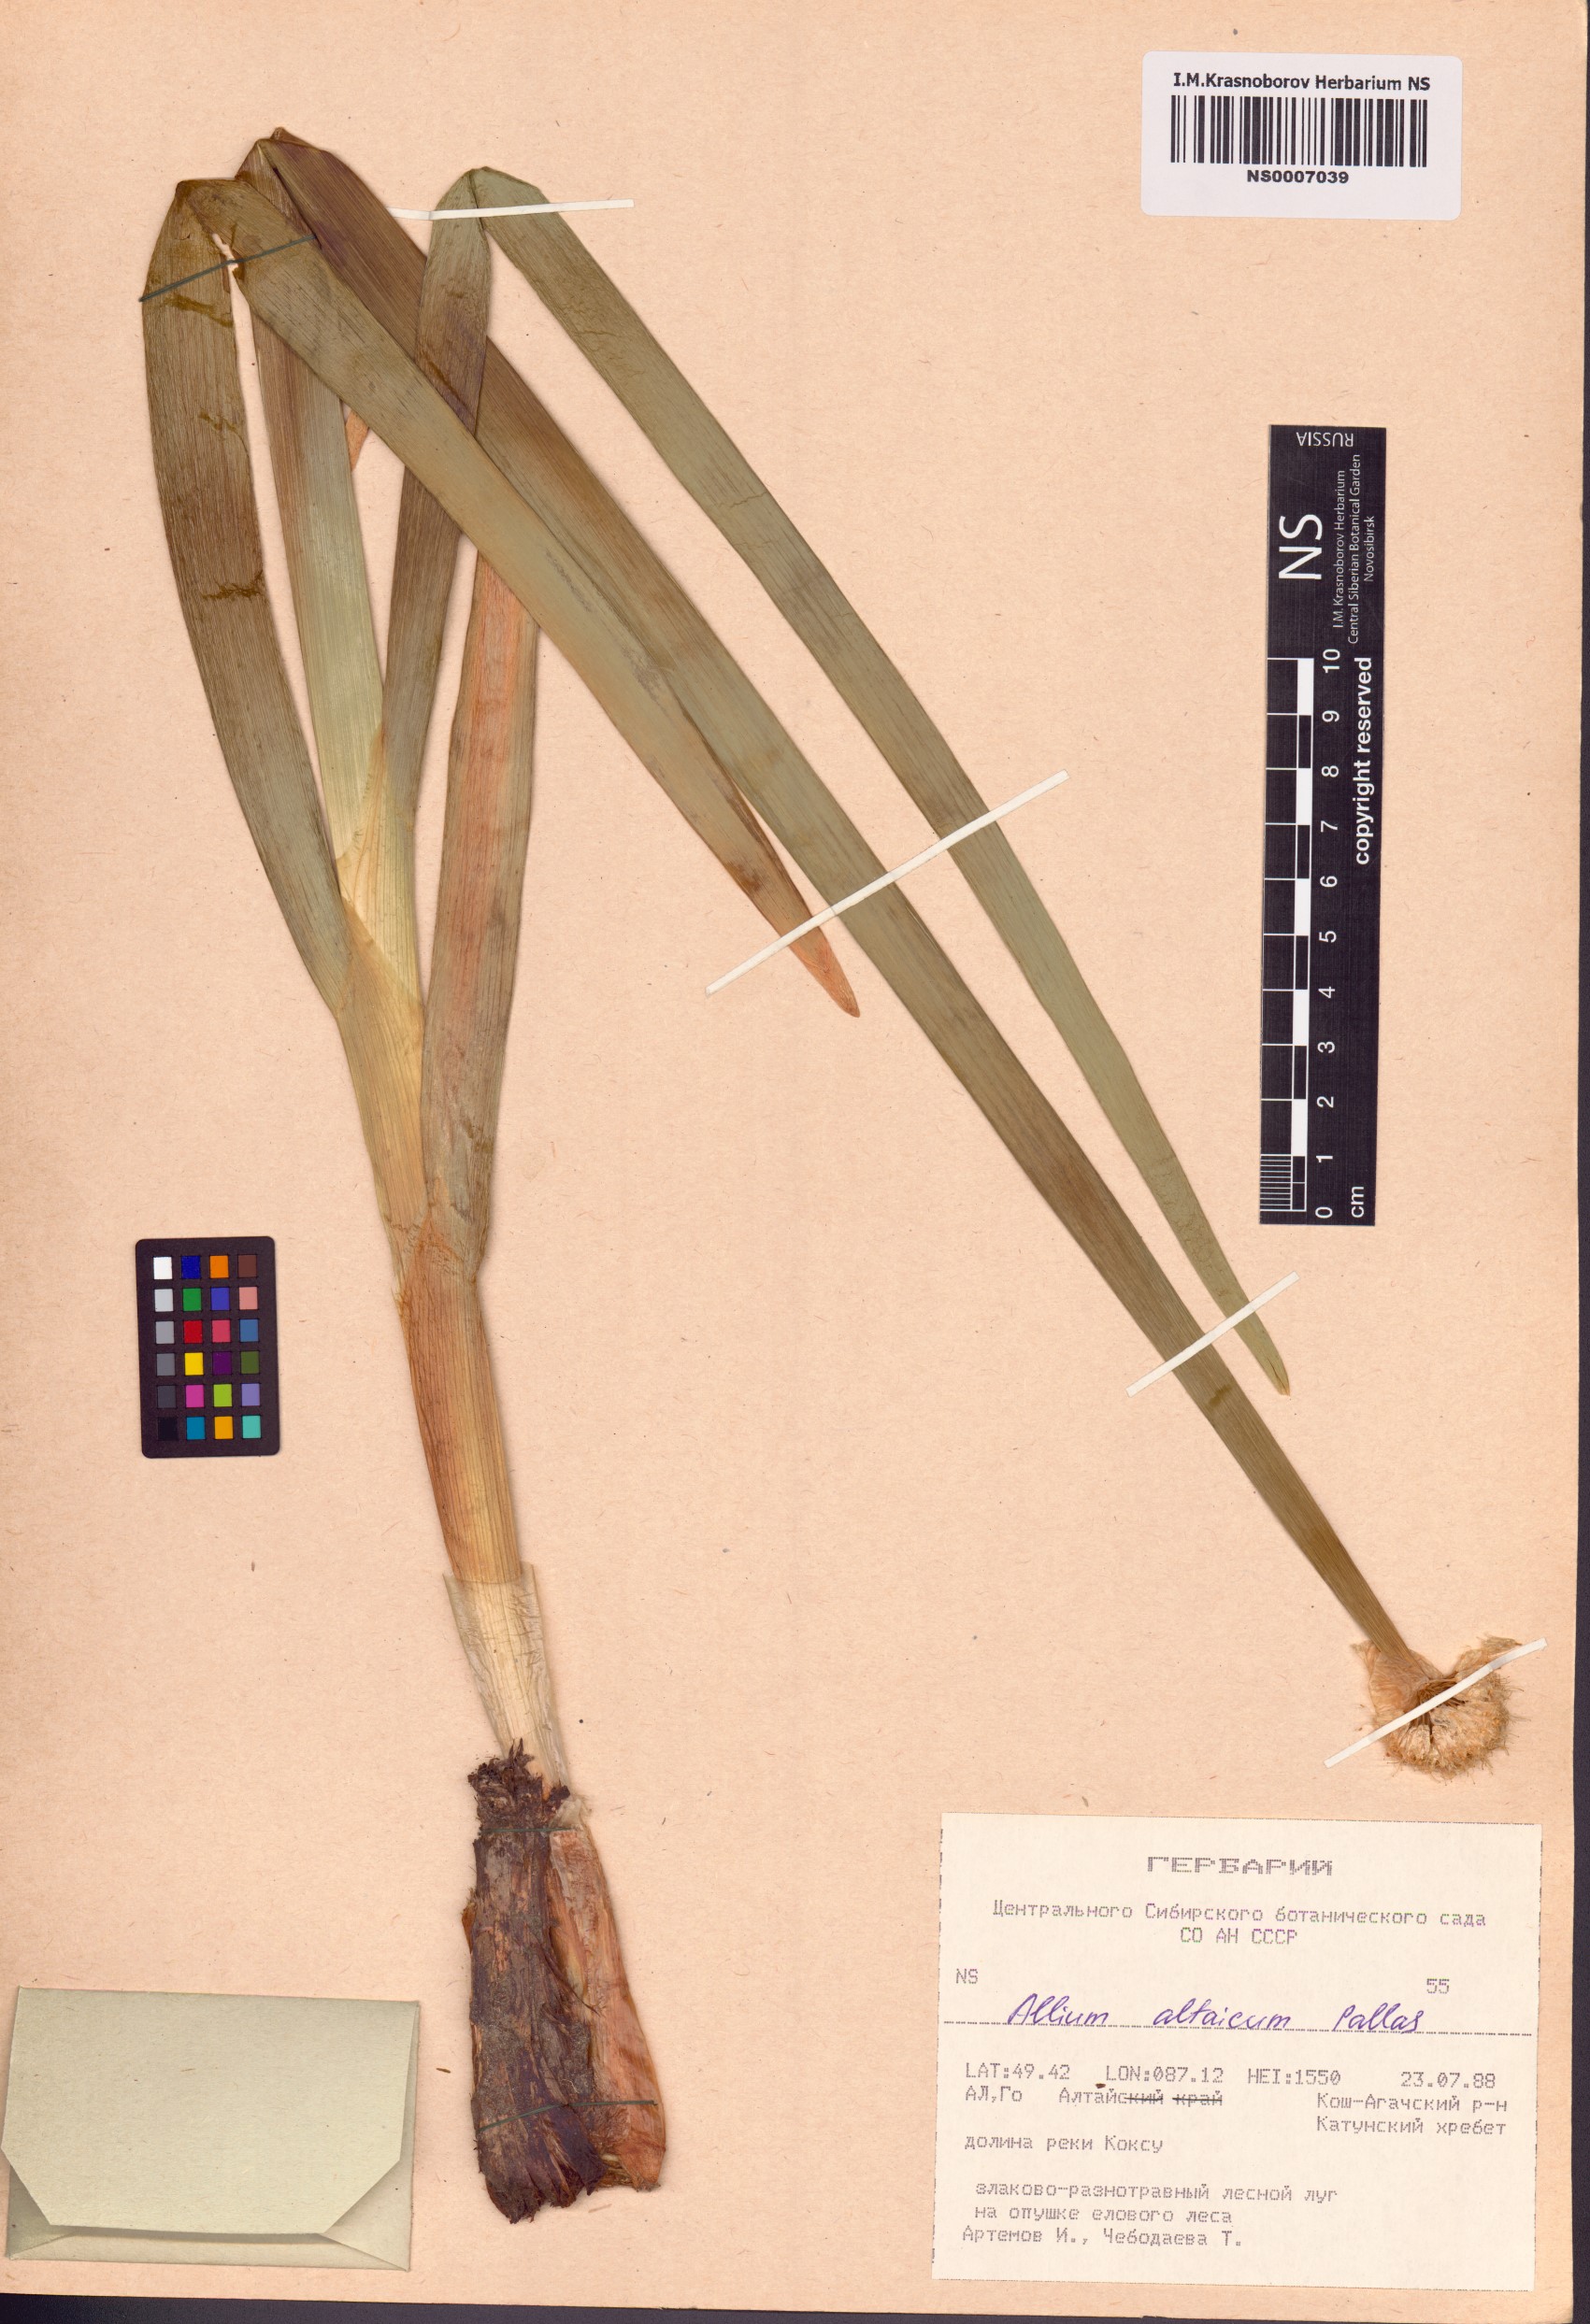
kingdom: Plantae
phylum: Tracheophyta
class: Liliopsida
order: Asparagales
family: Amaryllidaceae
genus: Allium
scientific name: Allium altaicum
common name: Altai onion
